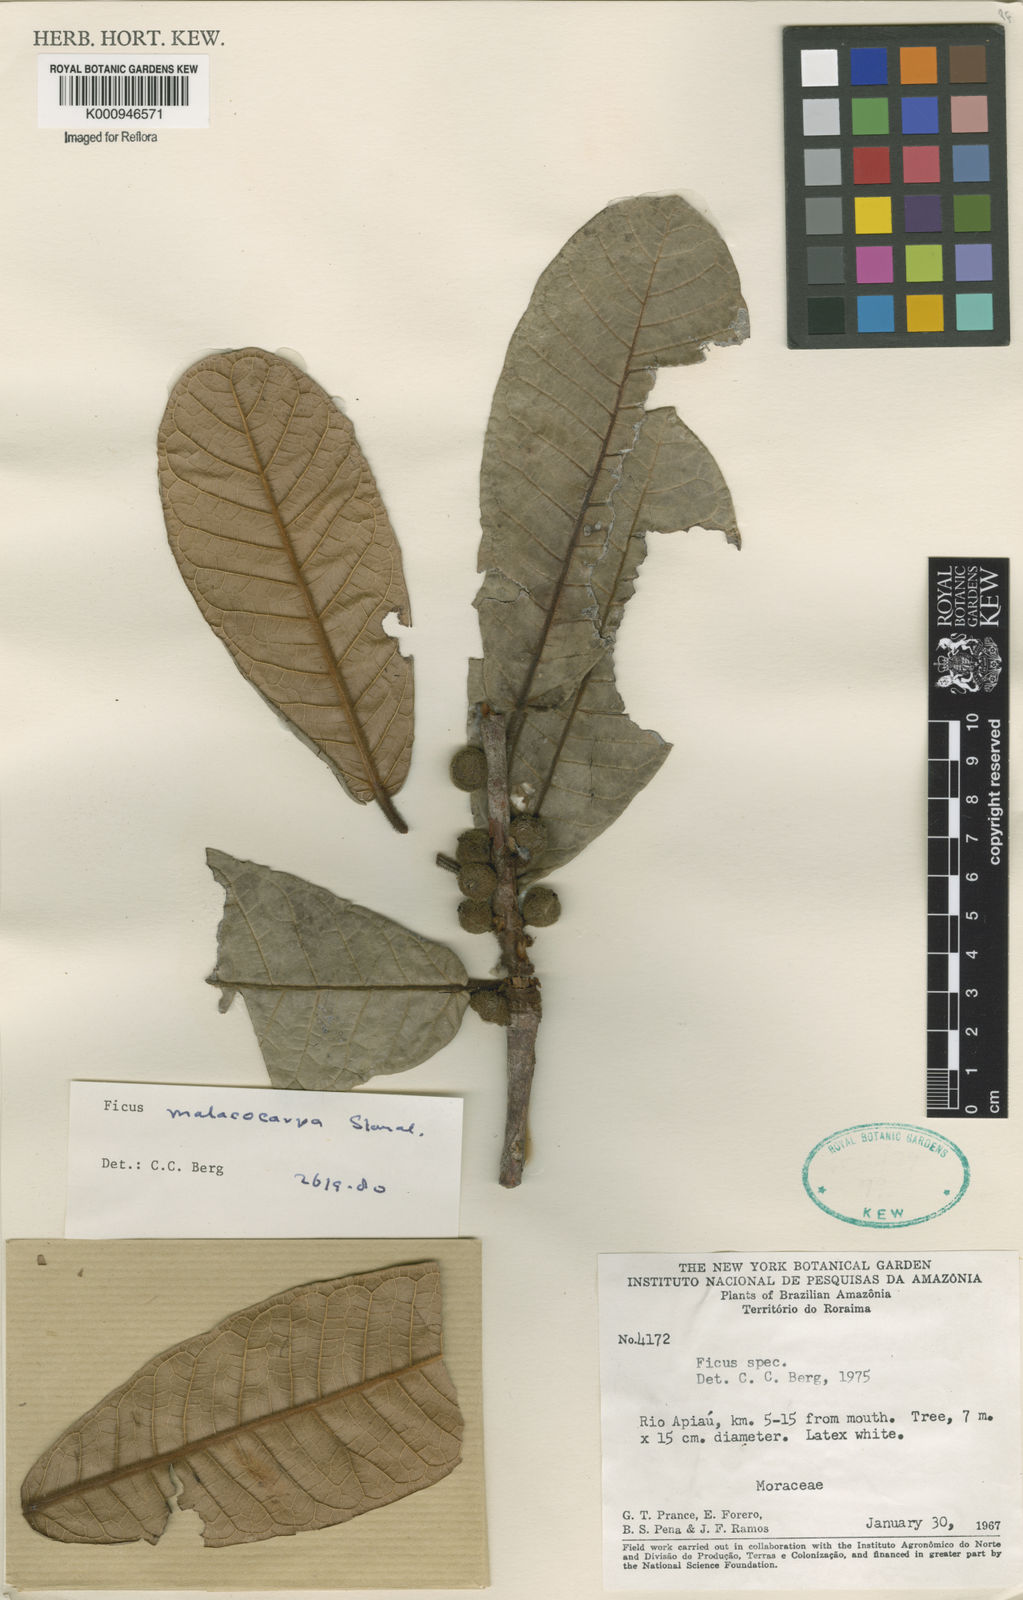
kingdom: Plantae
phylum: Tracheophyta
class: Magnoliopsida
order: Rosales
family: Moraceae
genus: Ficus
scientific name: Ficus popenoei
